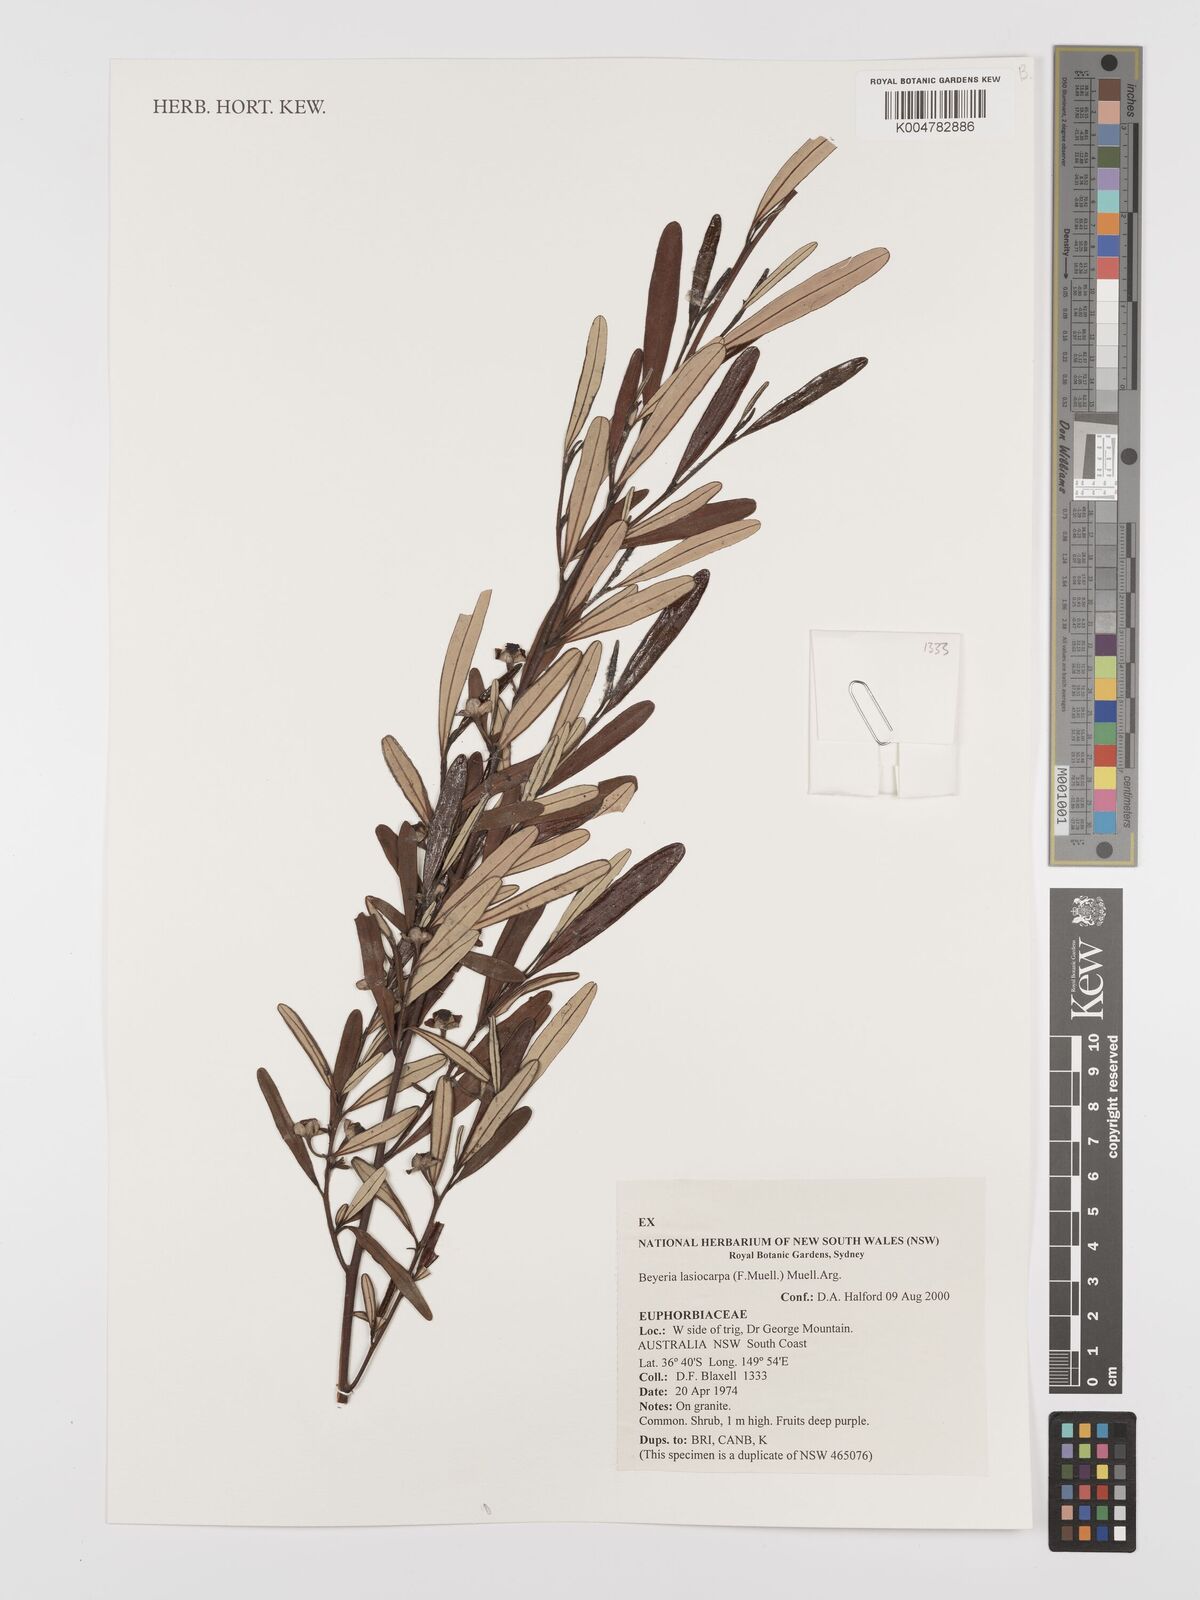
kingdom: Plantae
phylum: Tracheophyta
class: Magnoliopsida
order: Malpighiales
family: Euphorbiaceae
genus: Beyeria
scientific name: Beyeria lasiocarpa
